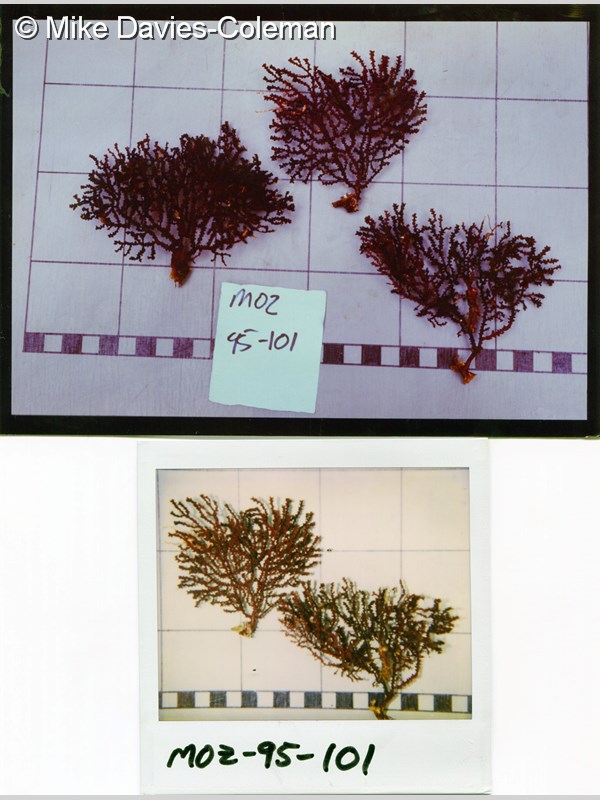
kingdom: Animalia
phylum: Cnidaria
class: Anthozoa
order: Malacalcyonacea
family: Melithaeidae
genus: Melithaea
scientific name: Melithaea rubra
